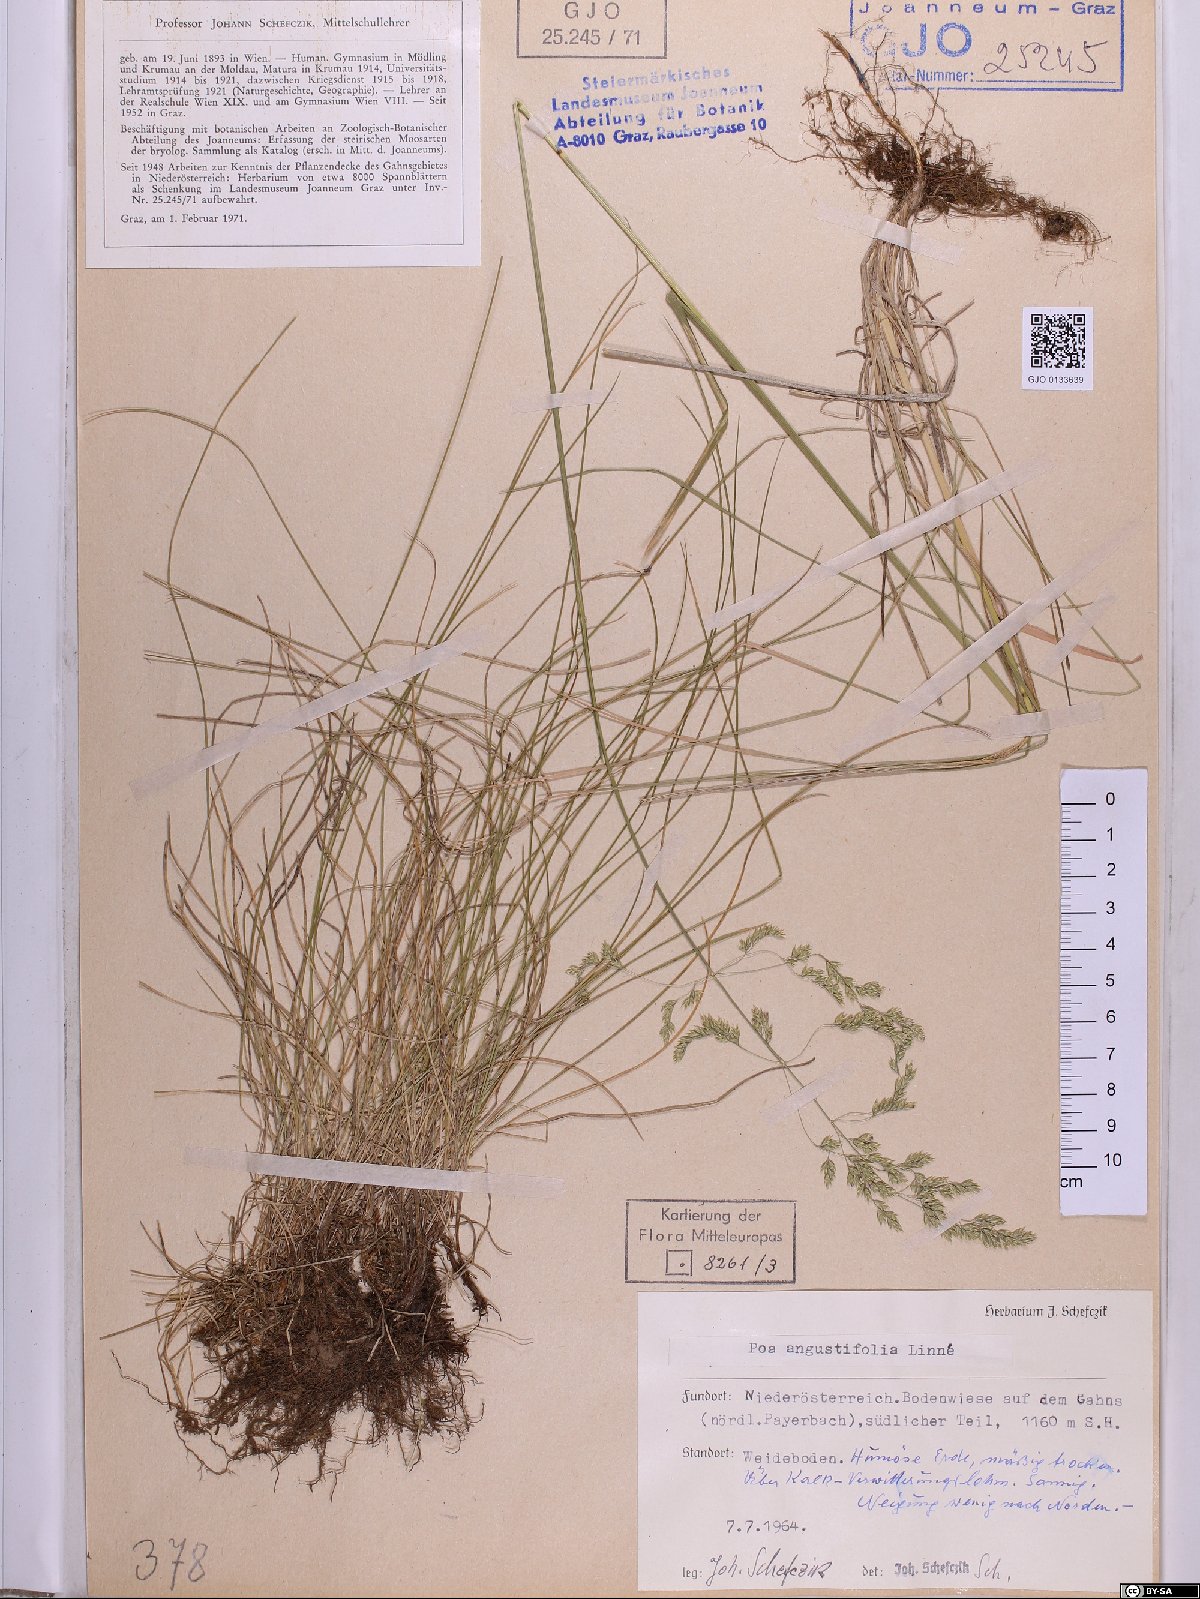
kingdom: Plantae
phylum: Tracheophyta
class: Liliopsida
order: Poales
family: Poaceae
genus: Poa
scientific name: Poa angustifolia
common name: Narrow-leaved meadow-grass
